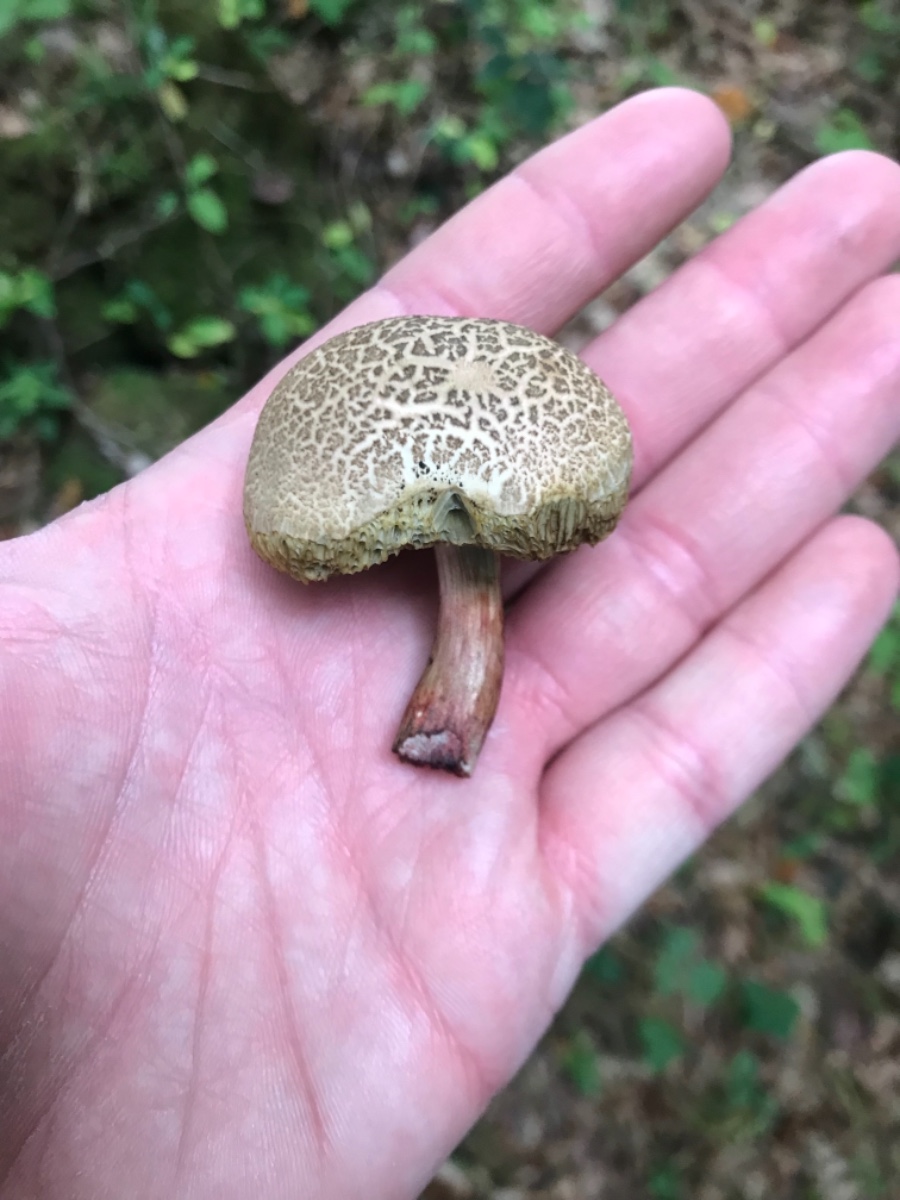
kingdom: Fungi
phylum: Basidiomycota
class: Agaricomycetes
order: Boletales
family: Boletaceae
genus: Xerocomellus
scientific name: Xerocomellus porosporus
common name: hvidsprukken rørhat
